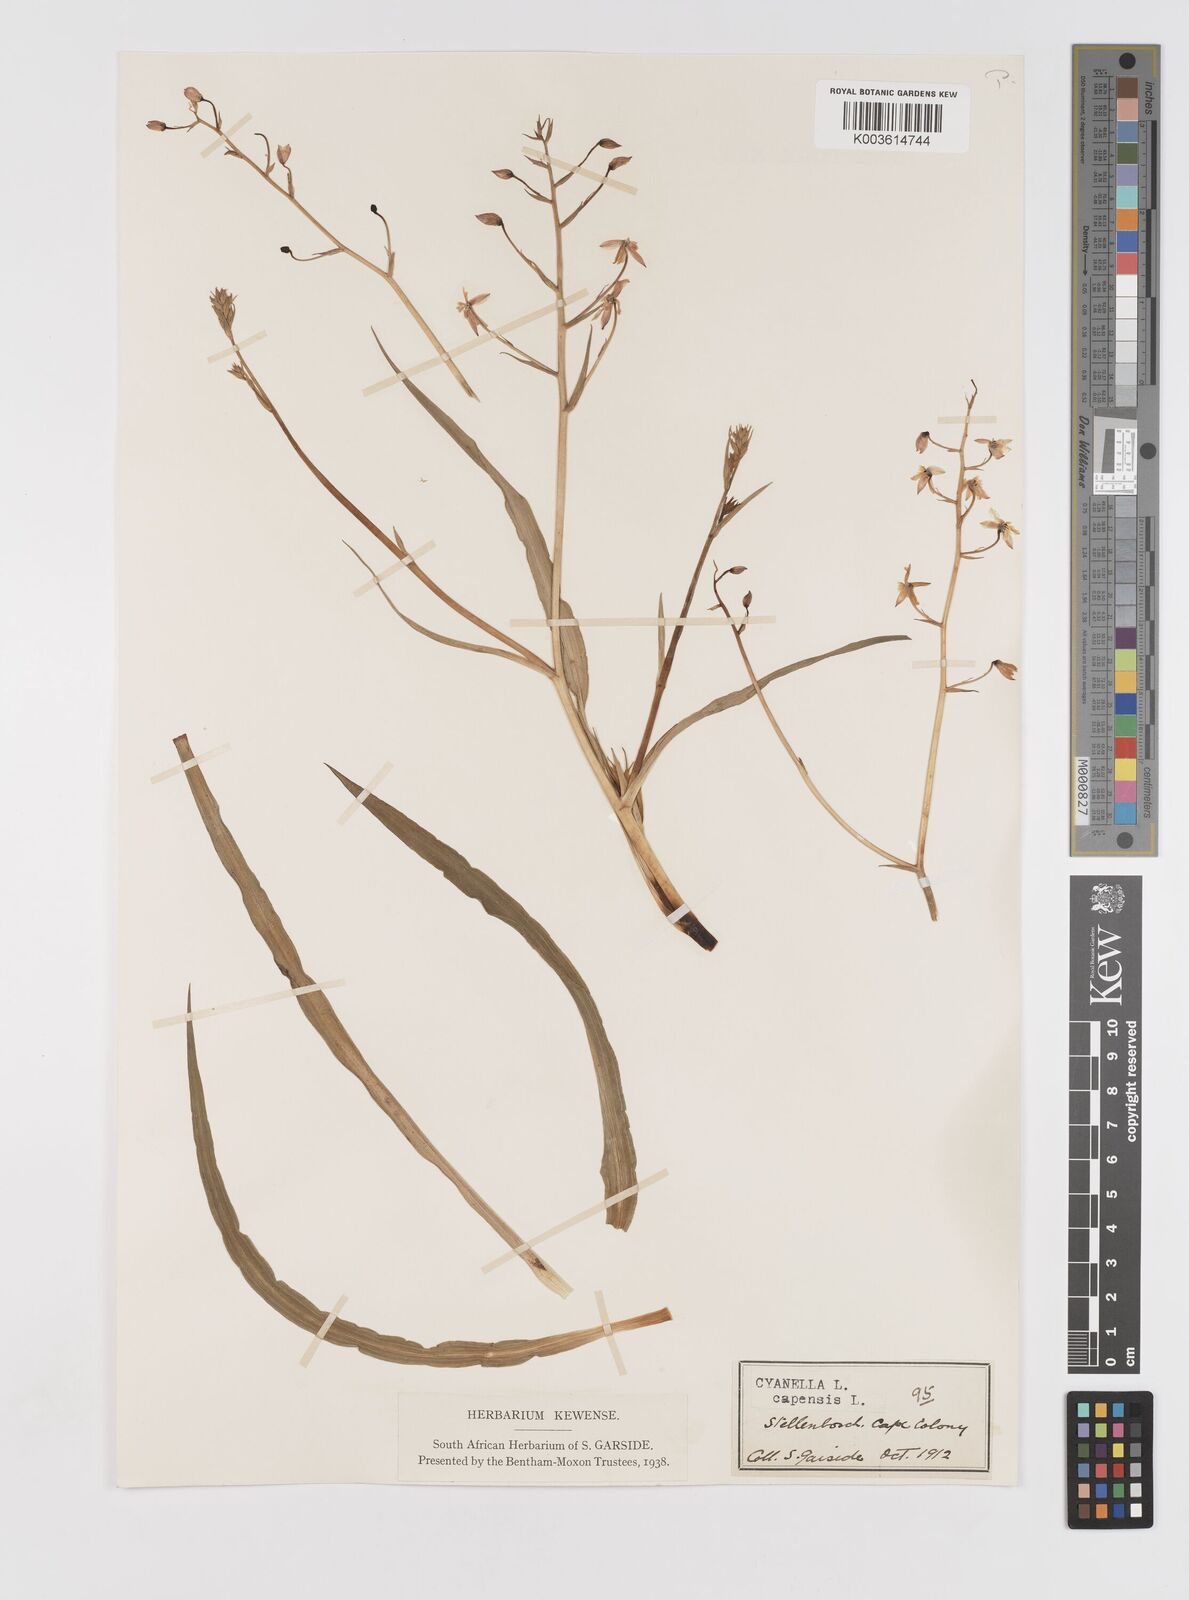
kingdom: Plantae
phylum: Tracheophyta
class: Liliopsida
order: Asparagales
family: Tecophilaeaceae
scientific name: Tecophilaeaceae
